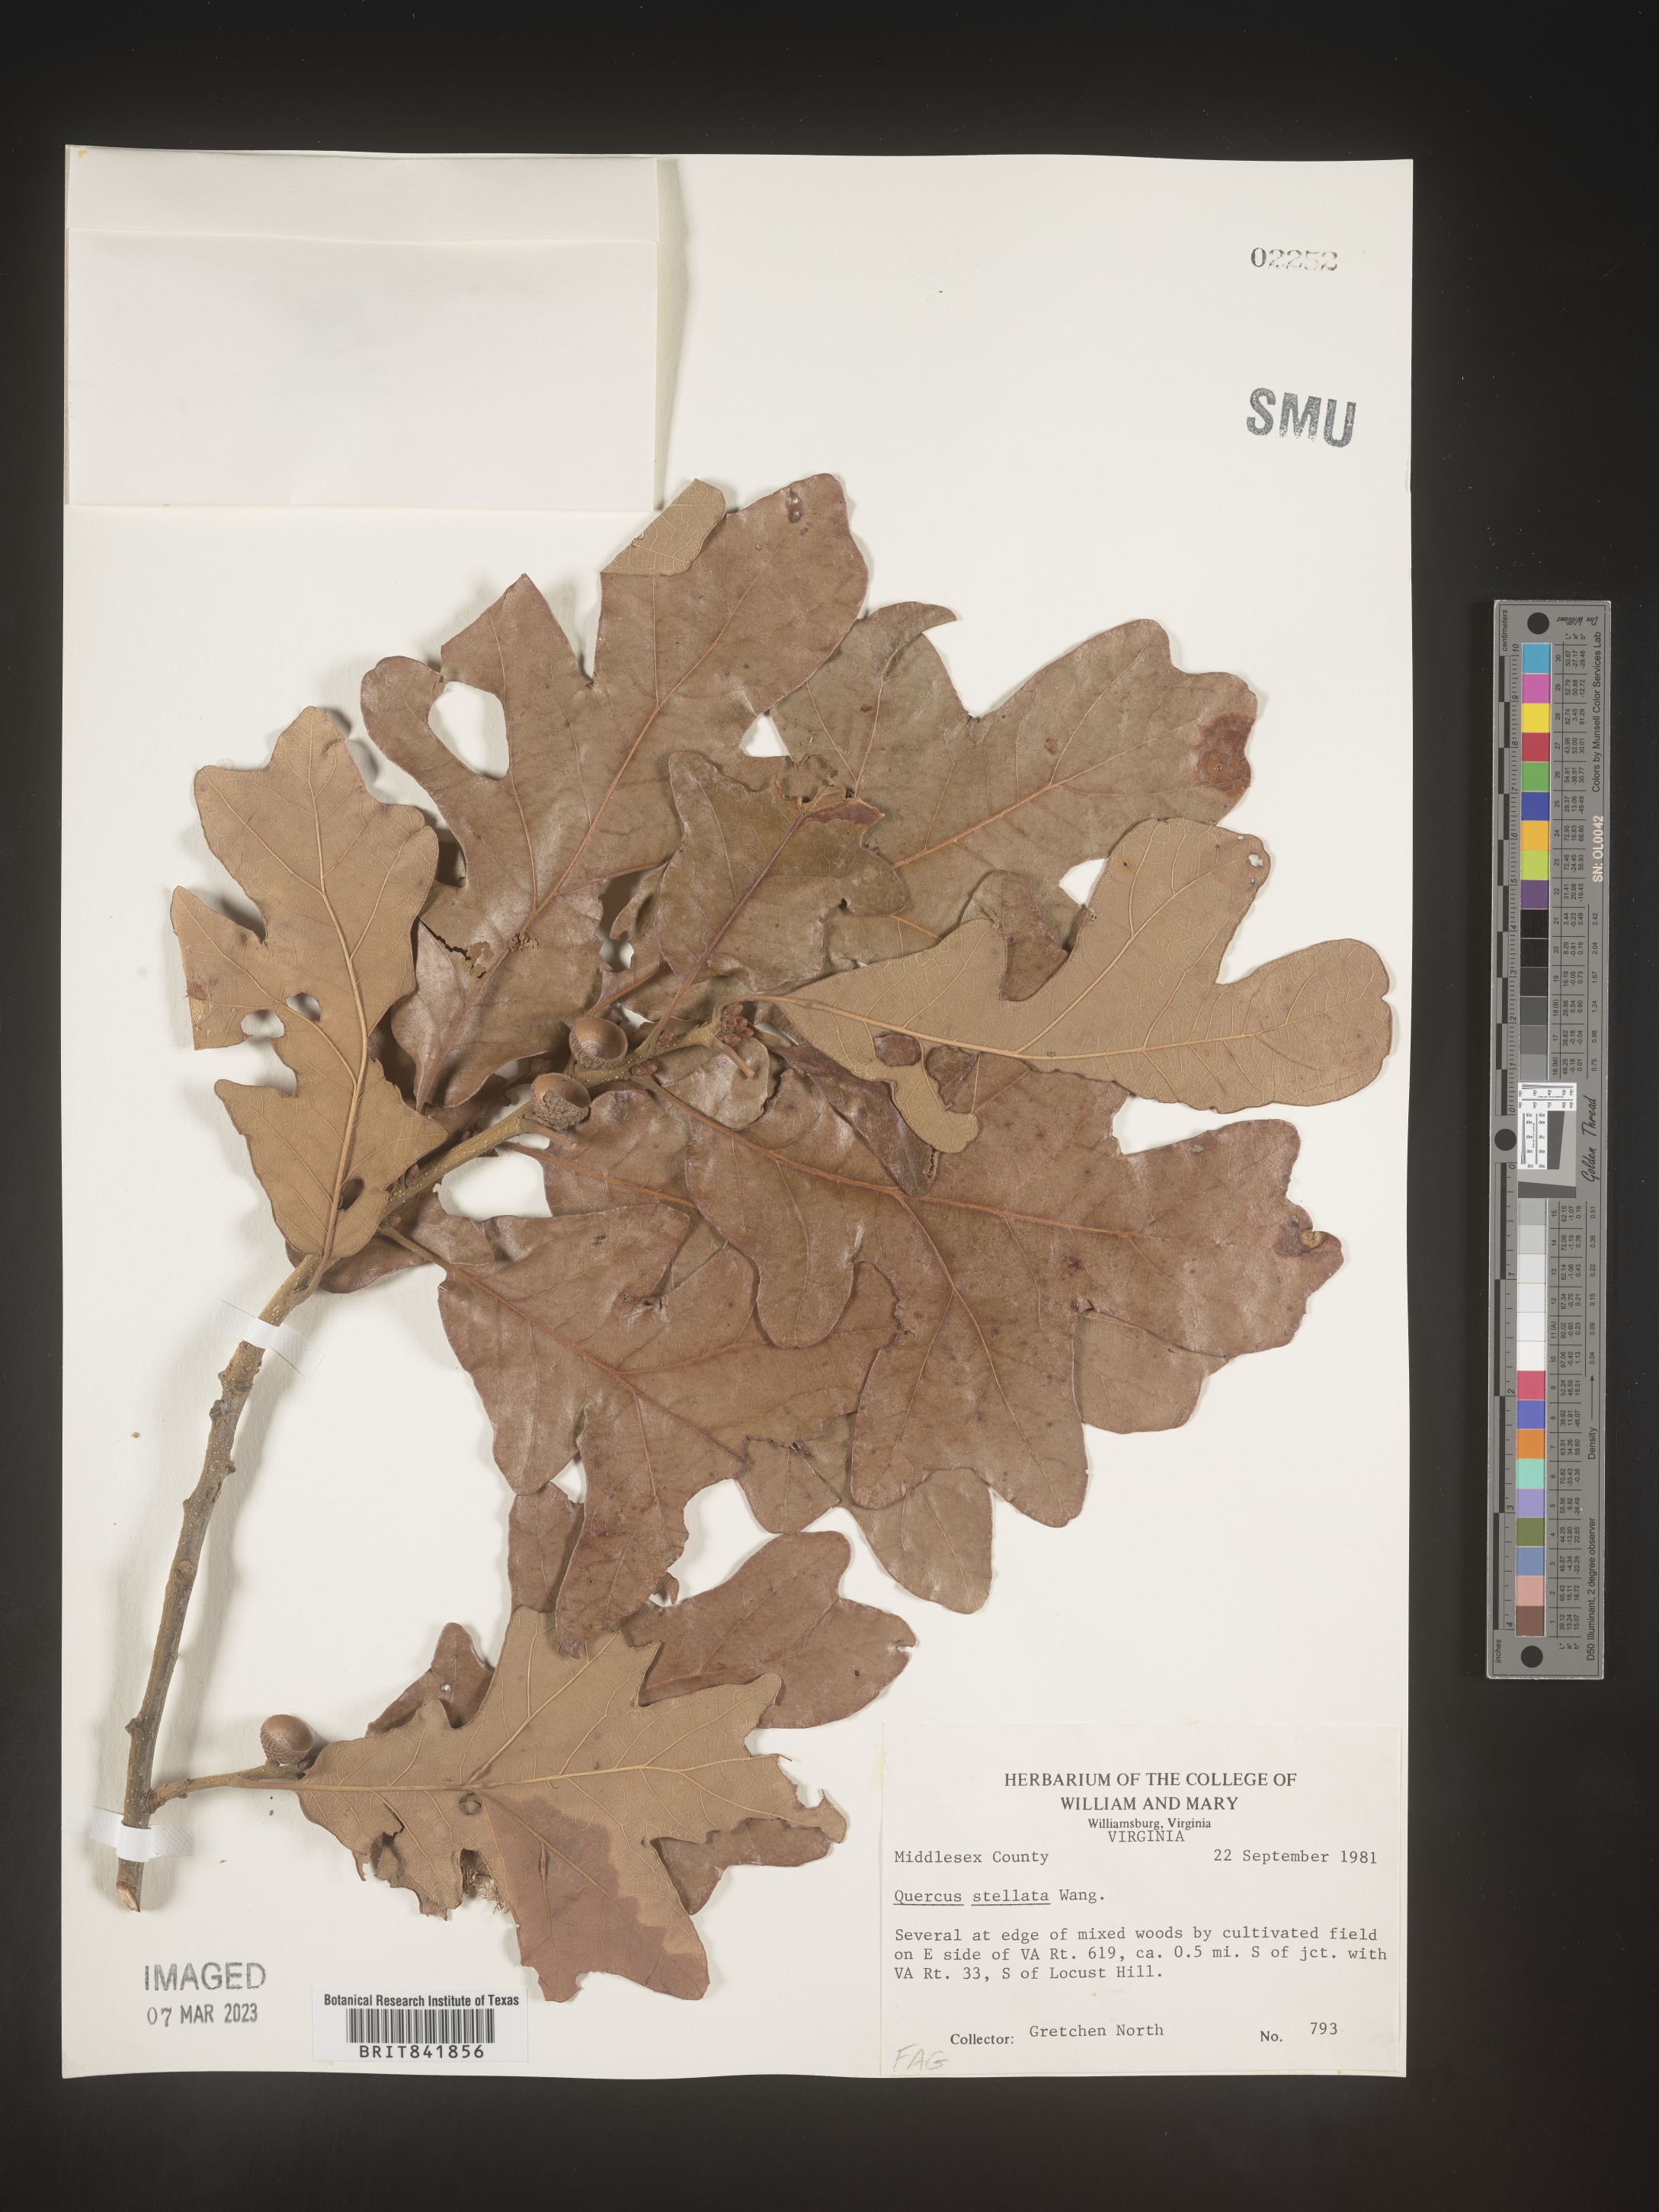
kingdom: Plantae
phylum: Tracheophyta
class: Magnoliopsida
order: Fagales
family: Fagaceae
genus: Quercus
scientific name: Quercus stellata
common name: Post oak
